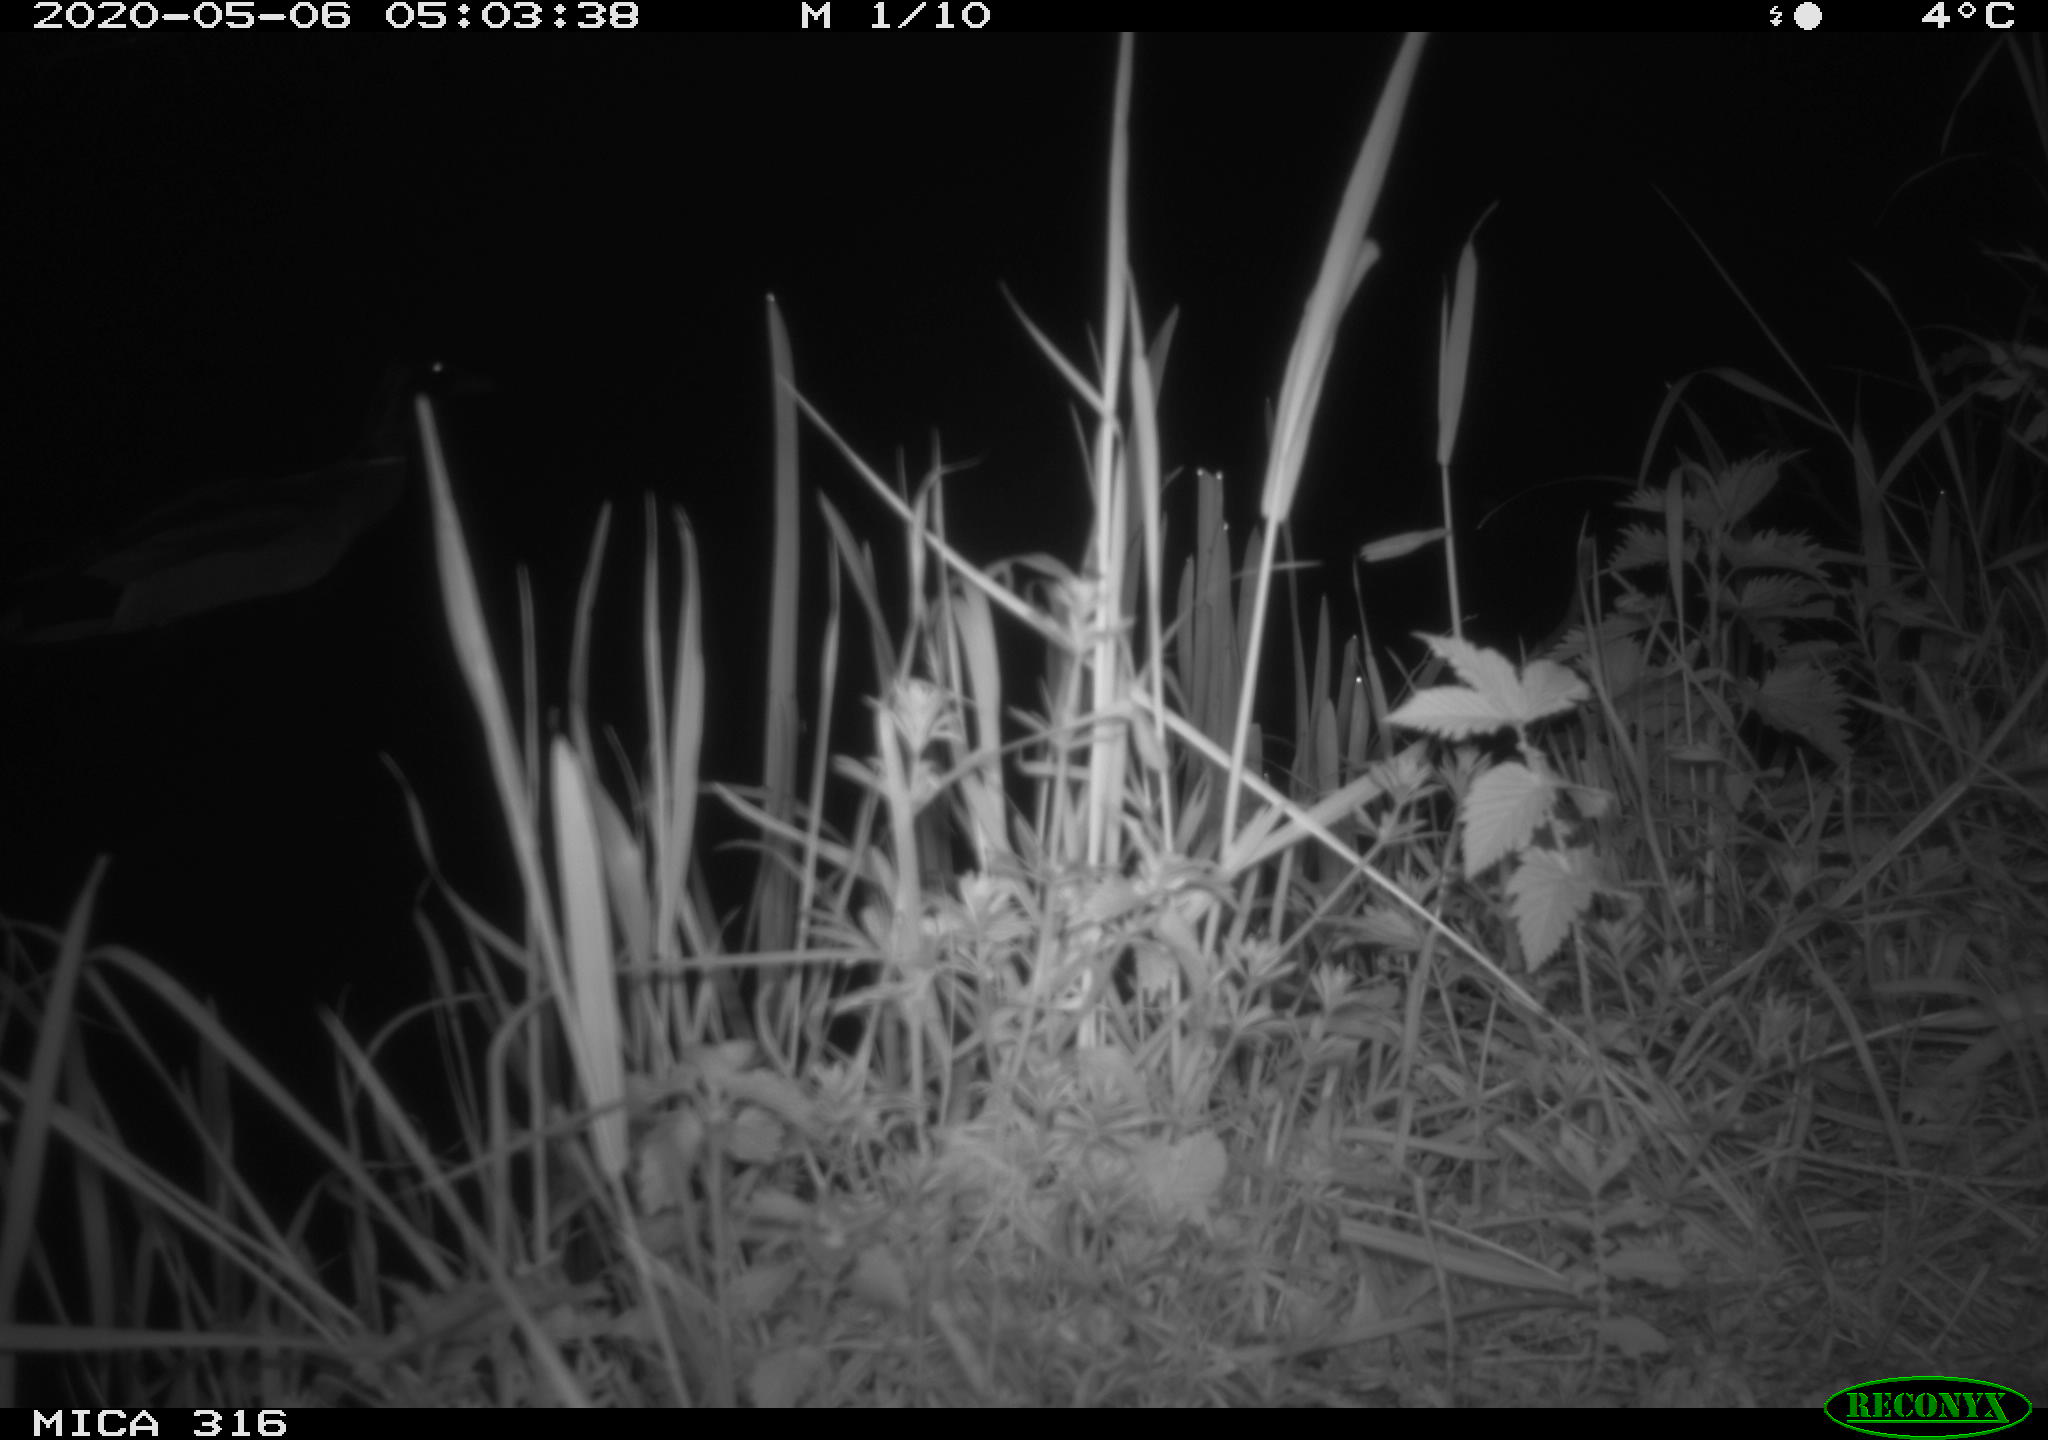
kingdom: Animalia
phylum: Chordata
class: Aves
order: Anseriformes
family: Anatidae
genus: Anas
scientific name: Anas platyrhynchos
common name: Mallard
